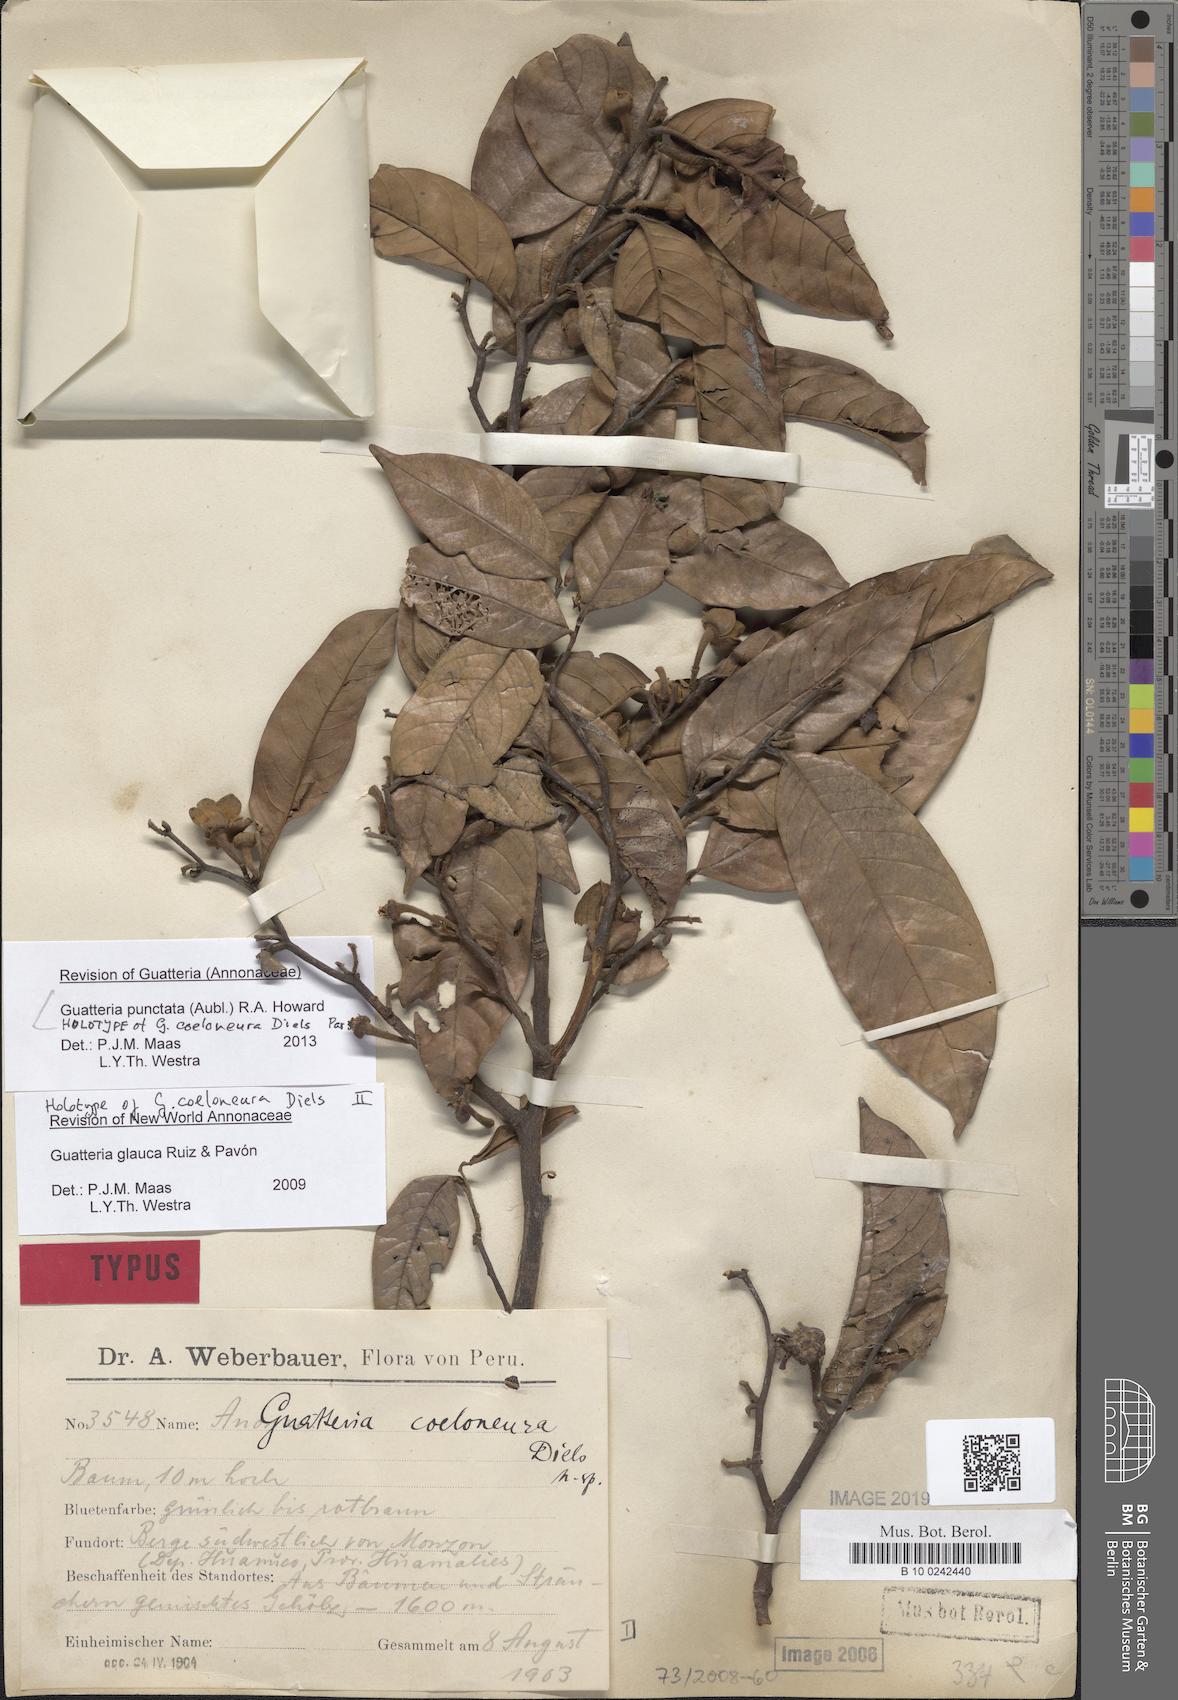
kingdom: Plantae
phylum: Tracheophyta
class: Magnoliopsida
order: Magnoliales
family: Annonaceae
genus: Guatteria
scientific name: Guatteria punctata
